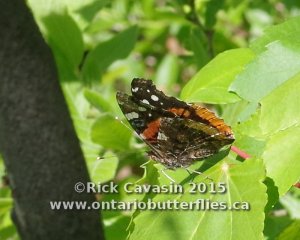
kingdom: Animalia
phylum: Arthropoda
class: Insecta
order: Lepidoptera
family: Nymphalidae
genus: Vanessa
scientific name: Vanessa atalanta
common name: Red Admiral
